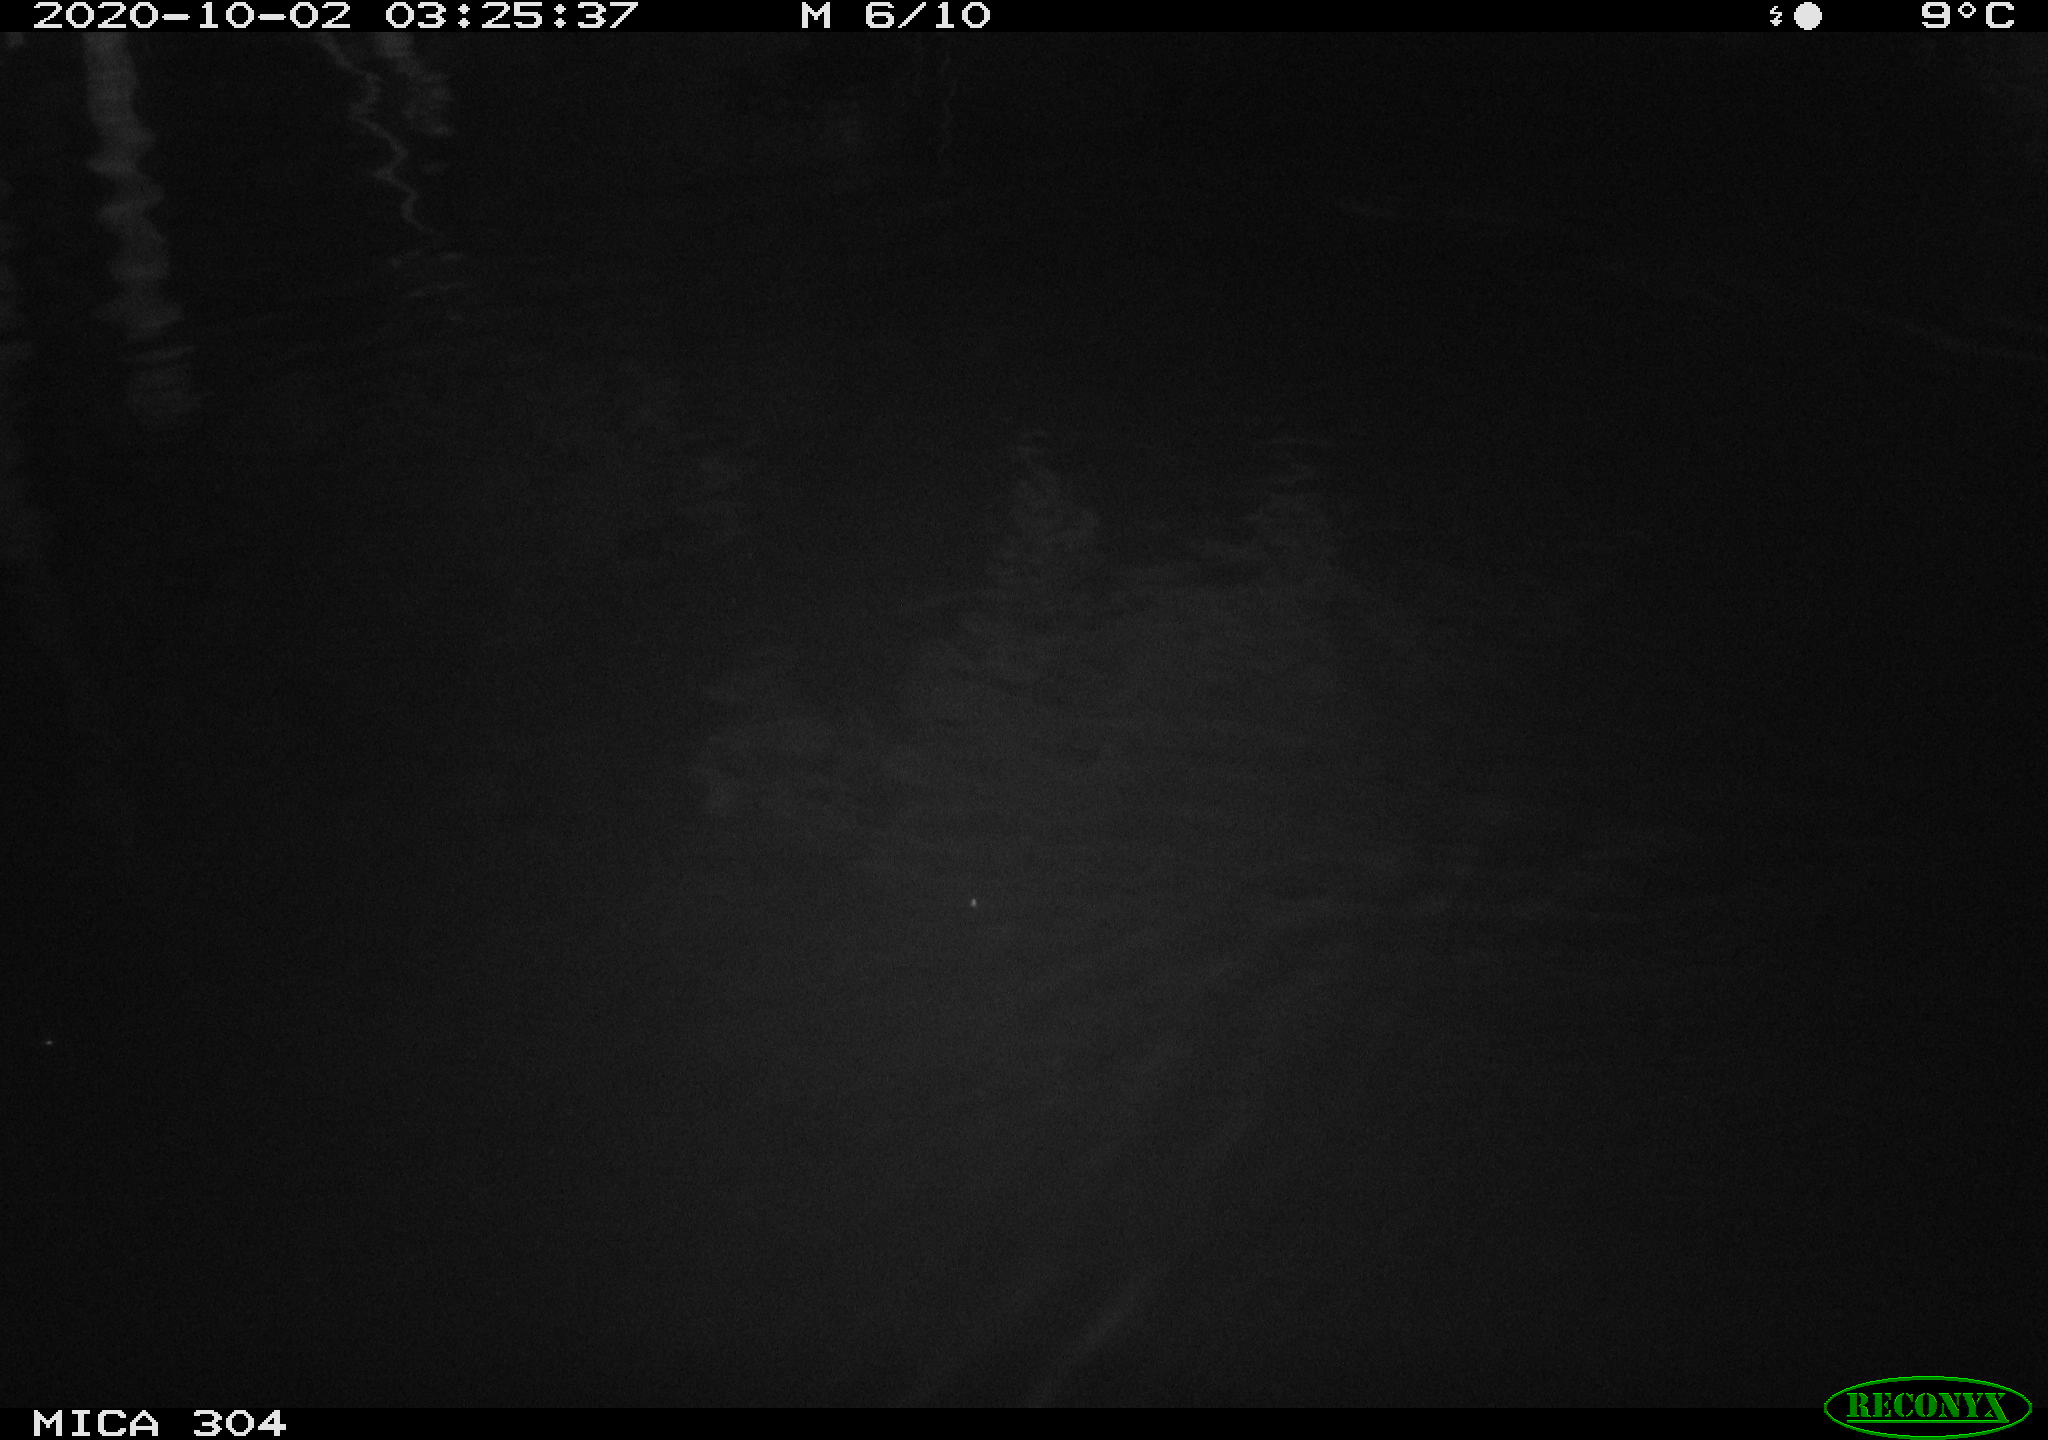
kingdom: Animalia
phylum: Chordata
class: Mammalia
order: Rodentia
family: Muridae
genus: Rattus
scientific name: Rattus norvegicus
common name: Brown rat
